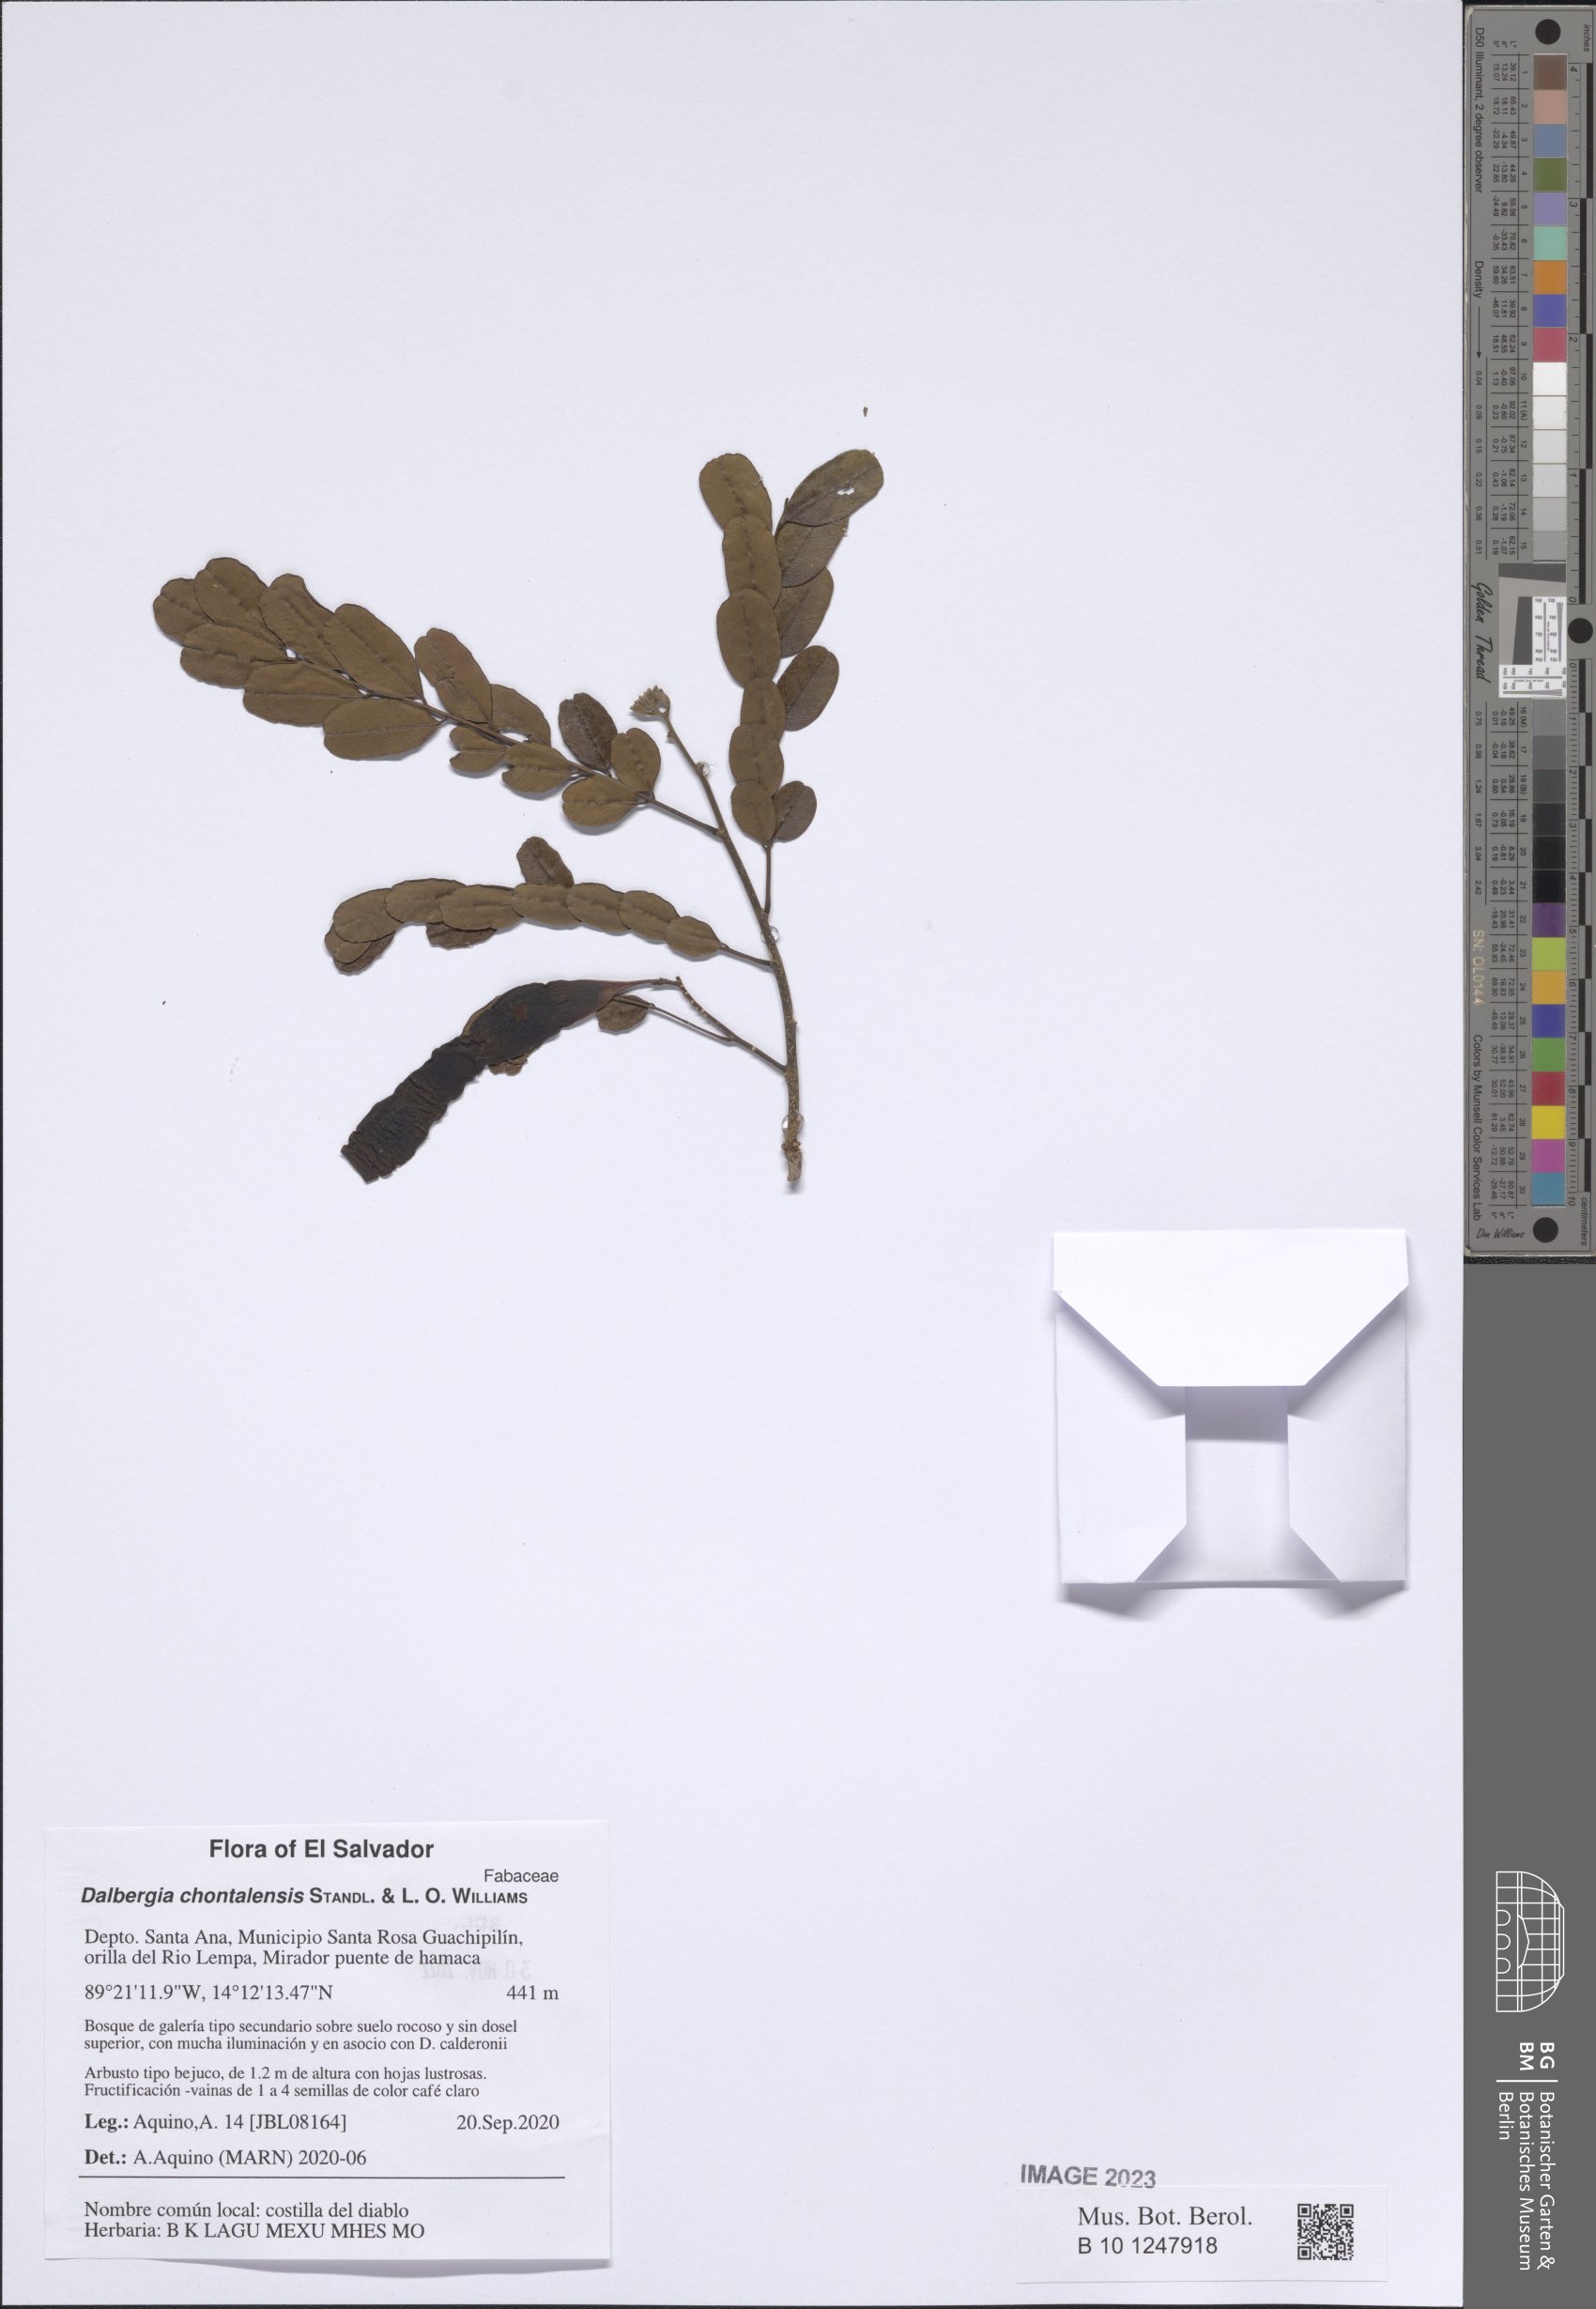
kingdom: Plantae
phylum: Tracheophyta
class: Magnoliopsida
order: Fabales
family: Fabaceae
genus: Dalbergia
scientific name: Dalbergia chontalensis
